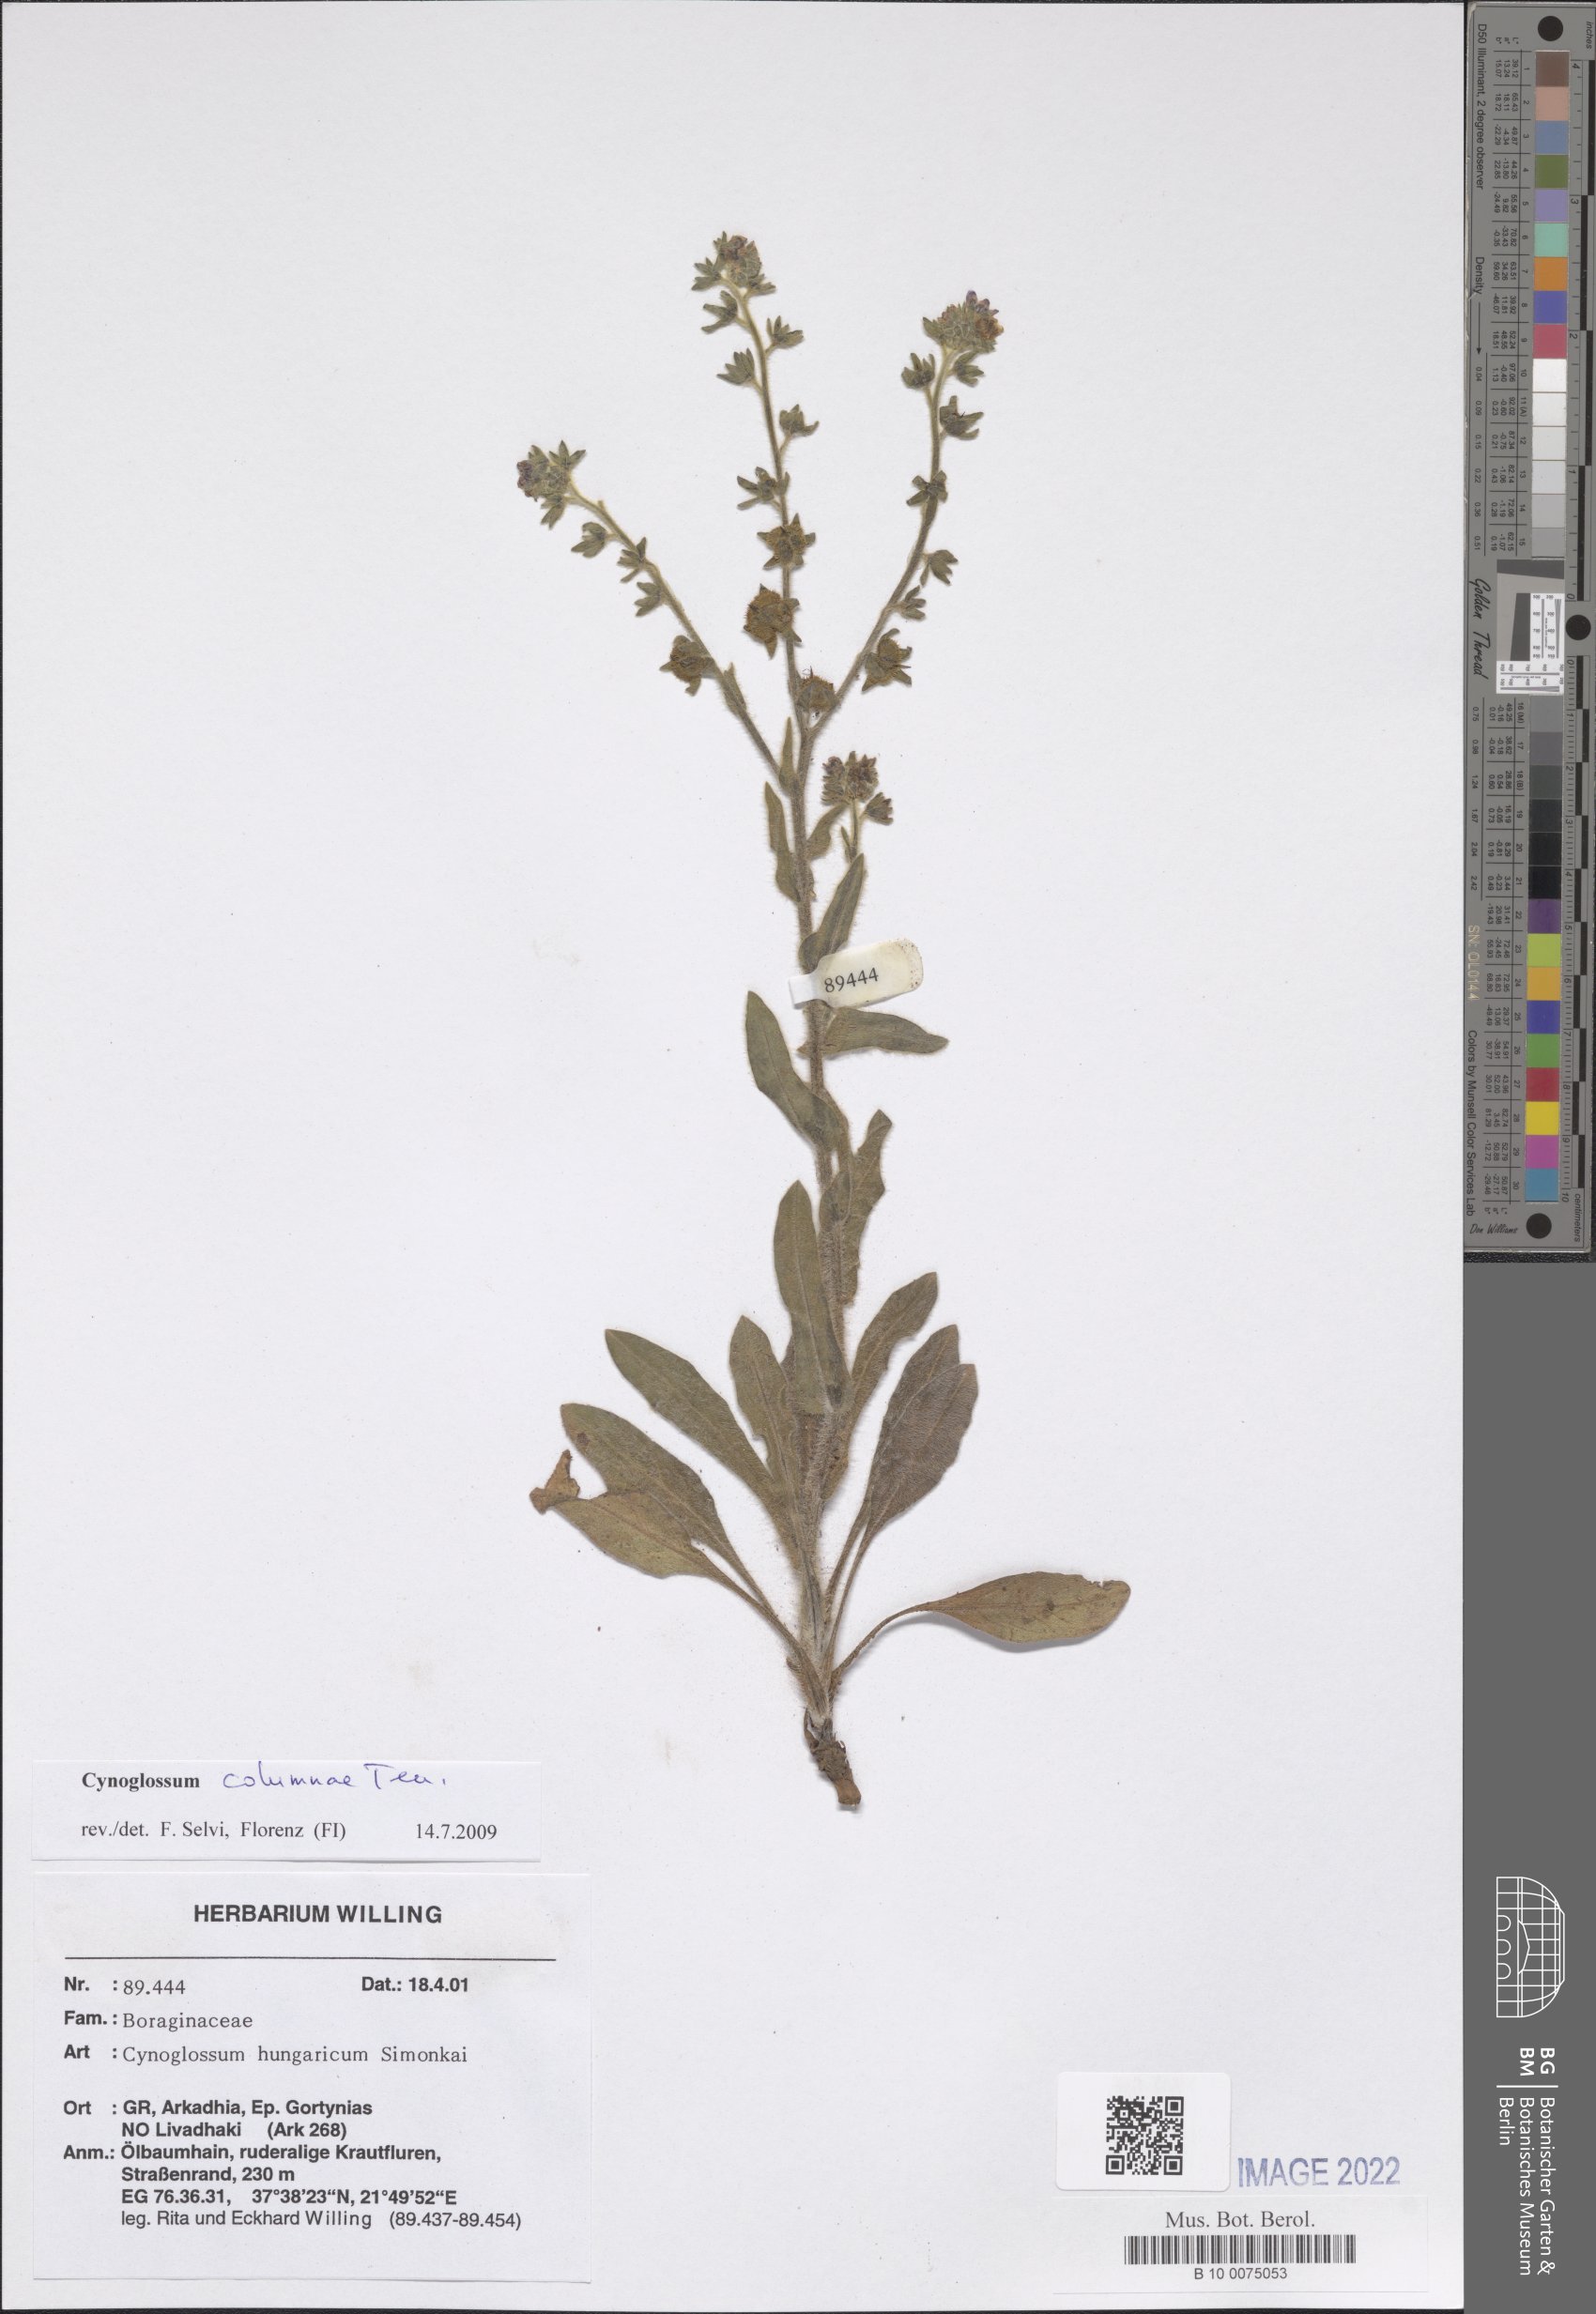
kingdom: Plantae
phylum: Tracheophyta
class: Magnoliopsida
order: Boraginales
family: Boraginaceae
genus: Rindera
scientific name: Rindera columnae
